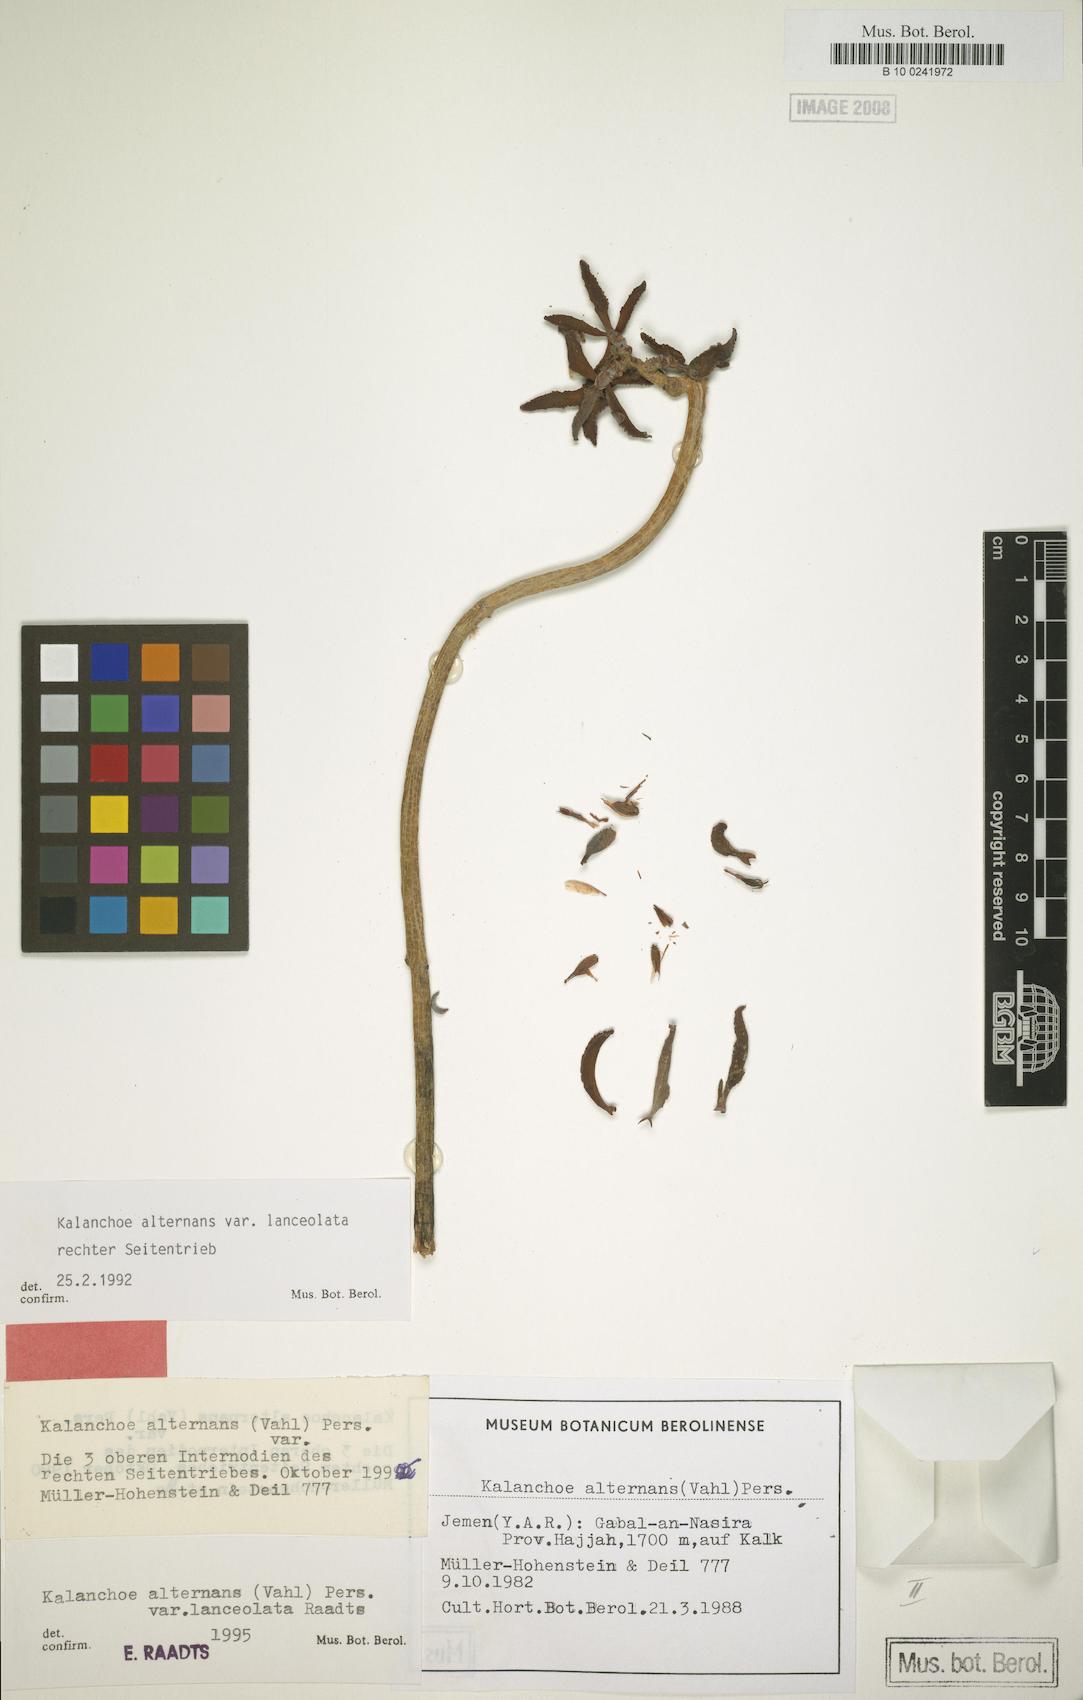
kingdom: Plantae
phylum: Tracheophyta
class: Magnoliopsida
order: Saxifragales
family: Crassulaceae
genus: Kalanchoe
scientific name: Kalanchoe alternans
